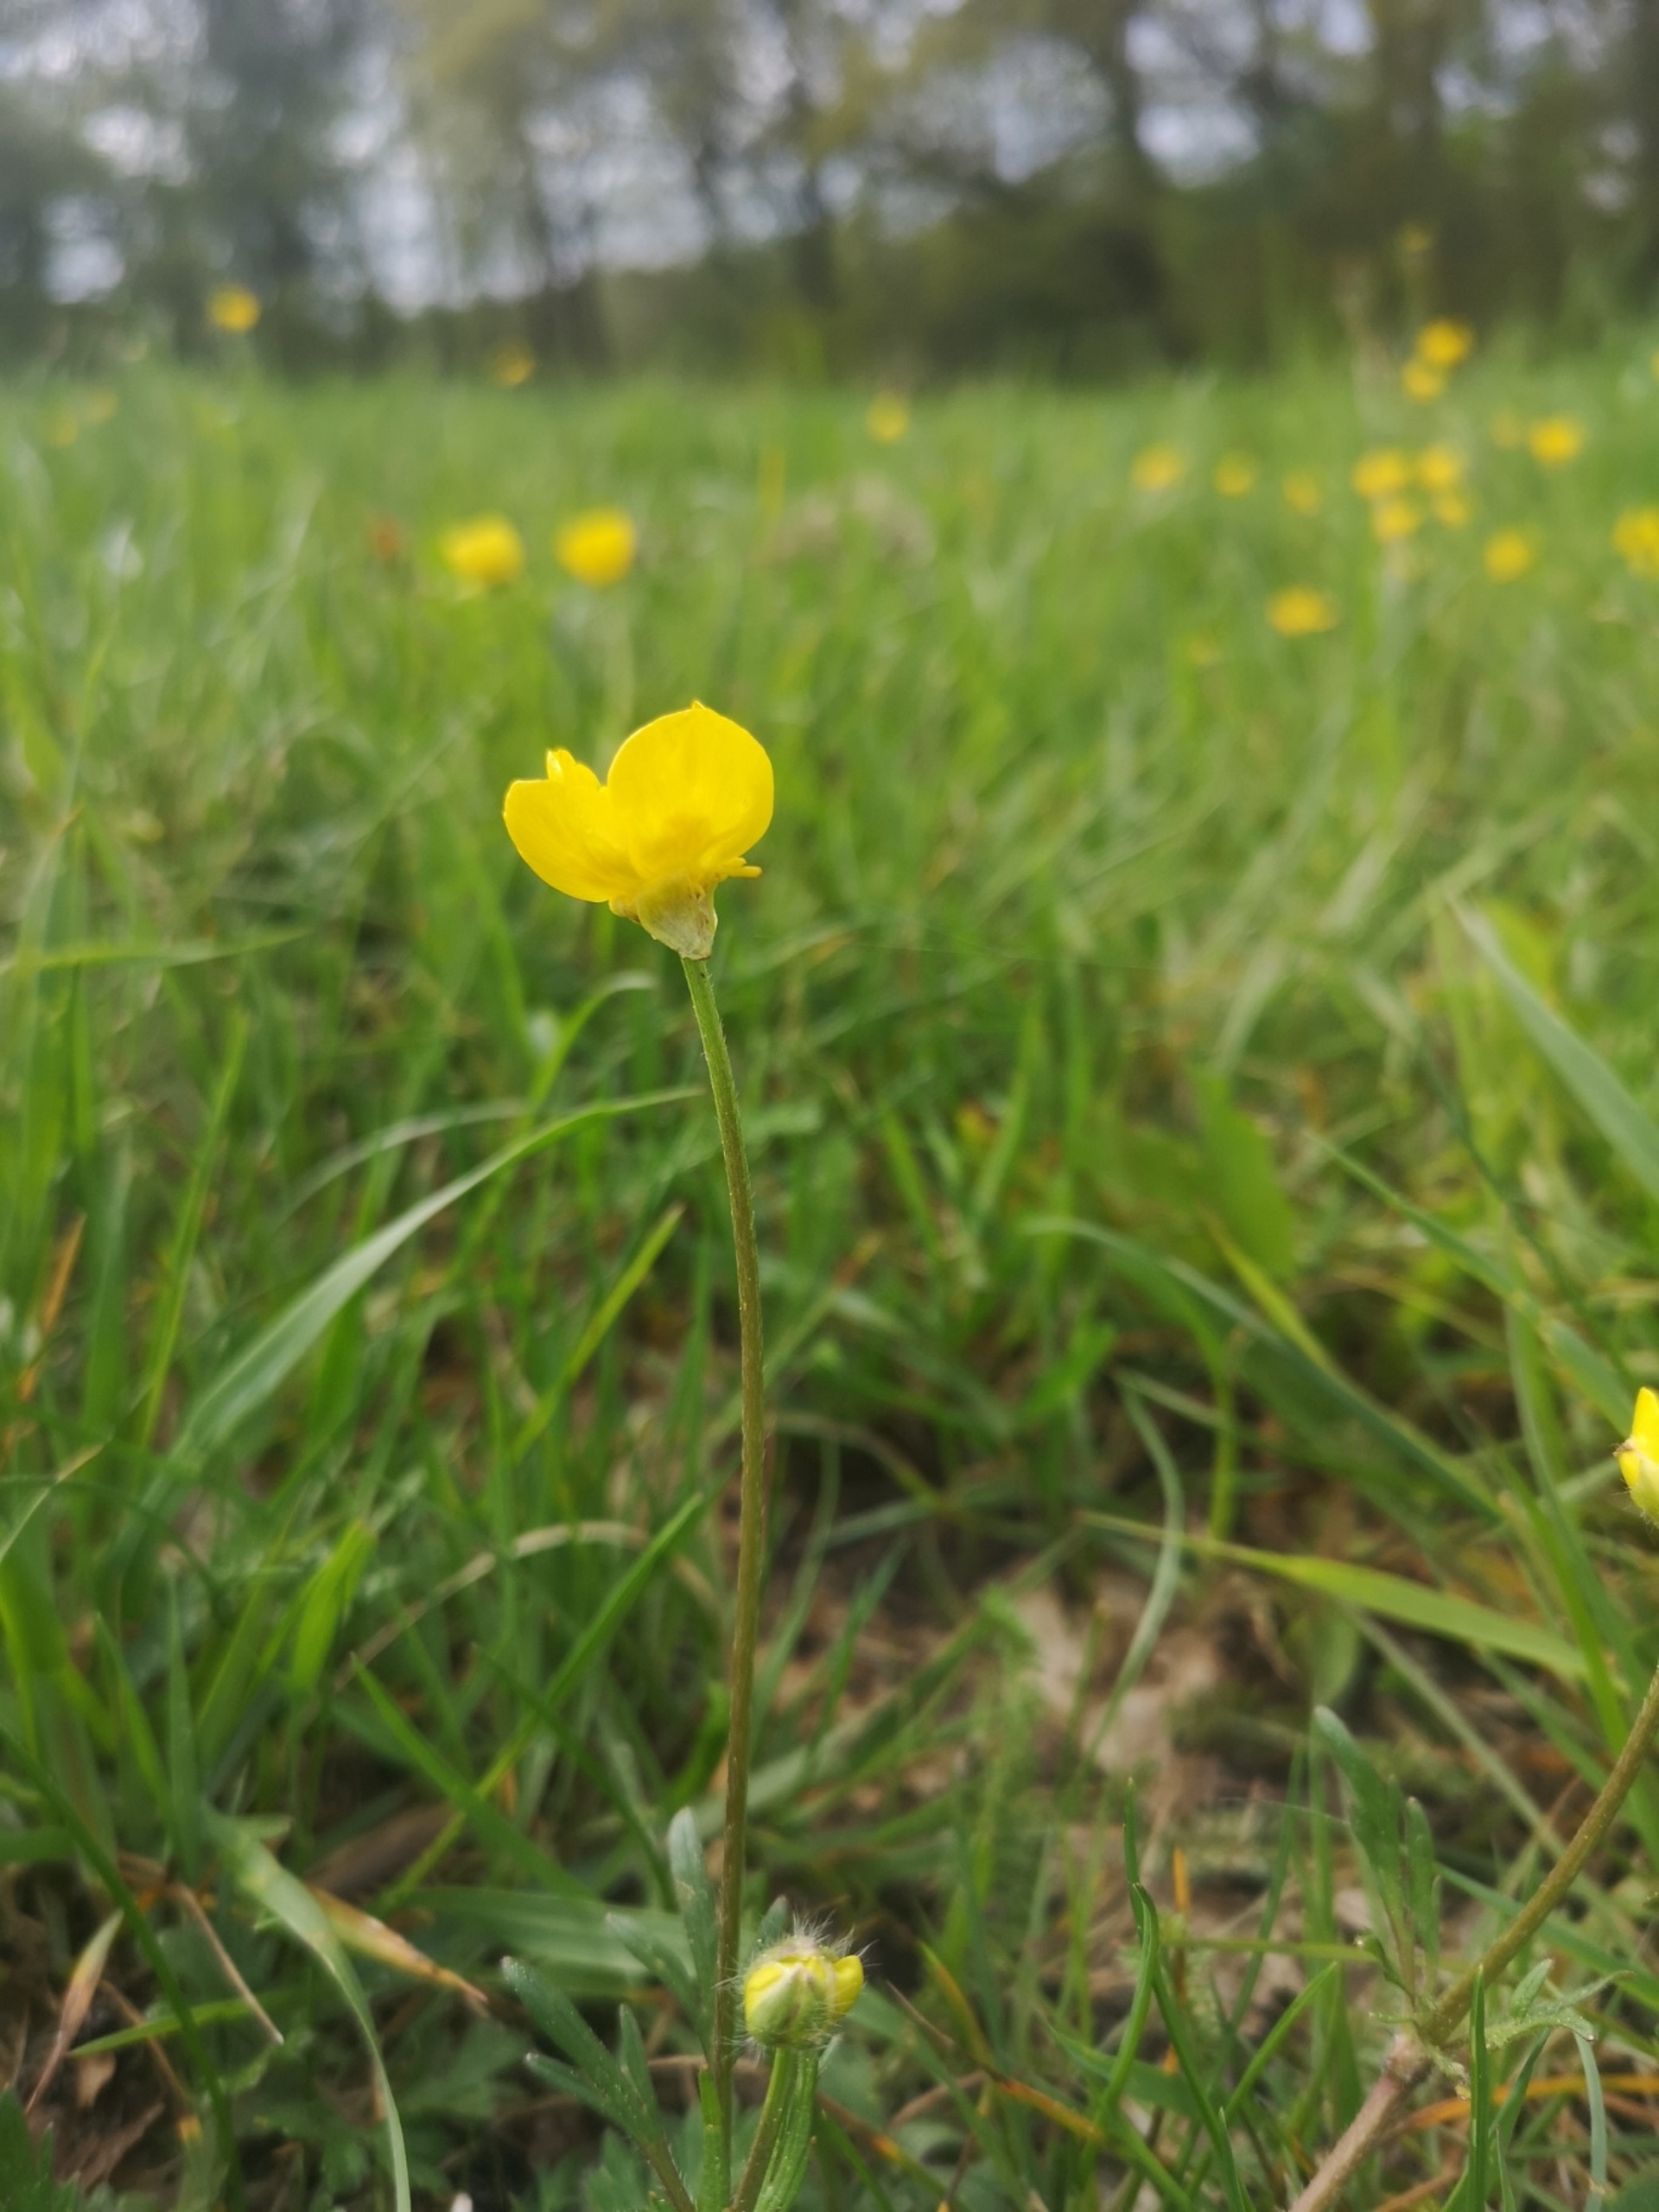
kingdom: Plantae
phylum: Tracheophyta
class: Magnoliopsida
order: Ranunculales
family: Ranunculaceae
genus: Ranunculus
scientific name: Ranunculus bulbosus
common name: Knold-ranunkel
